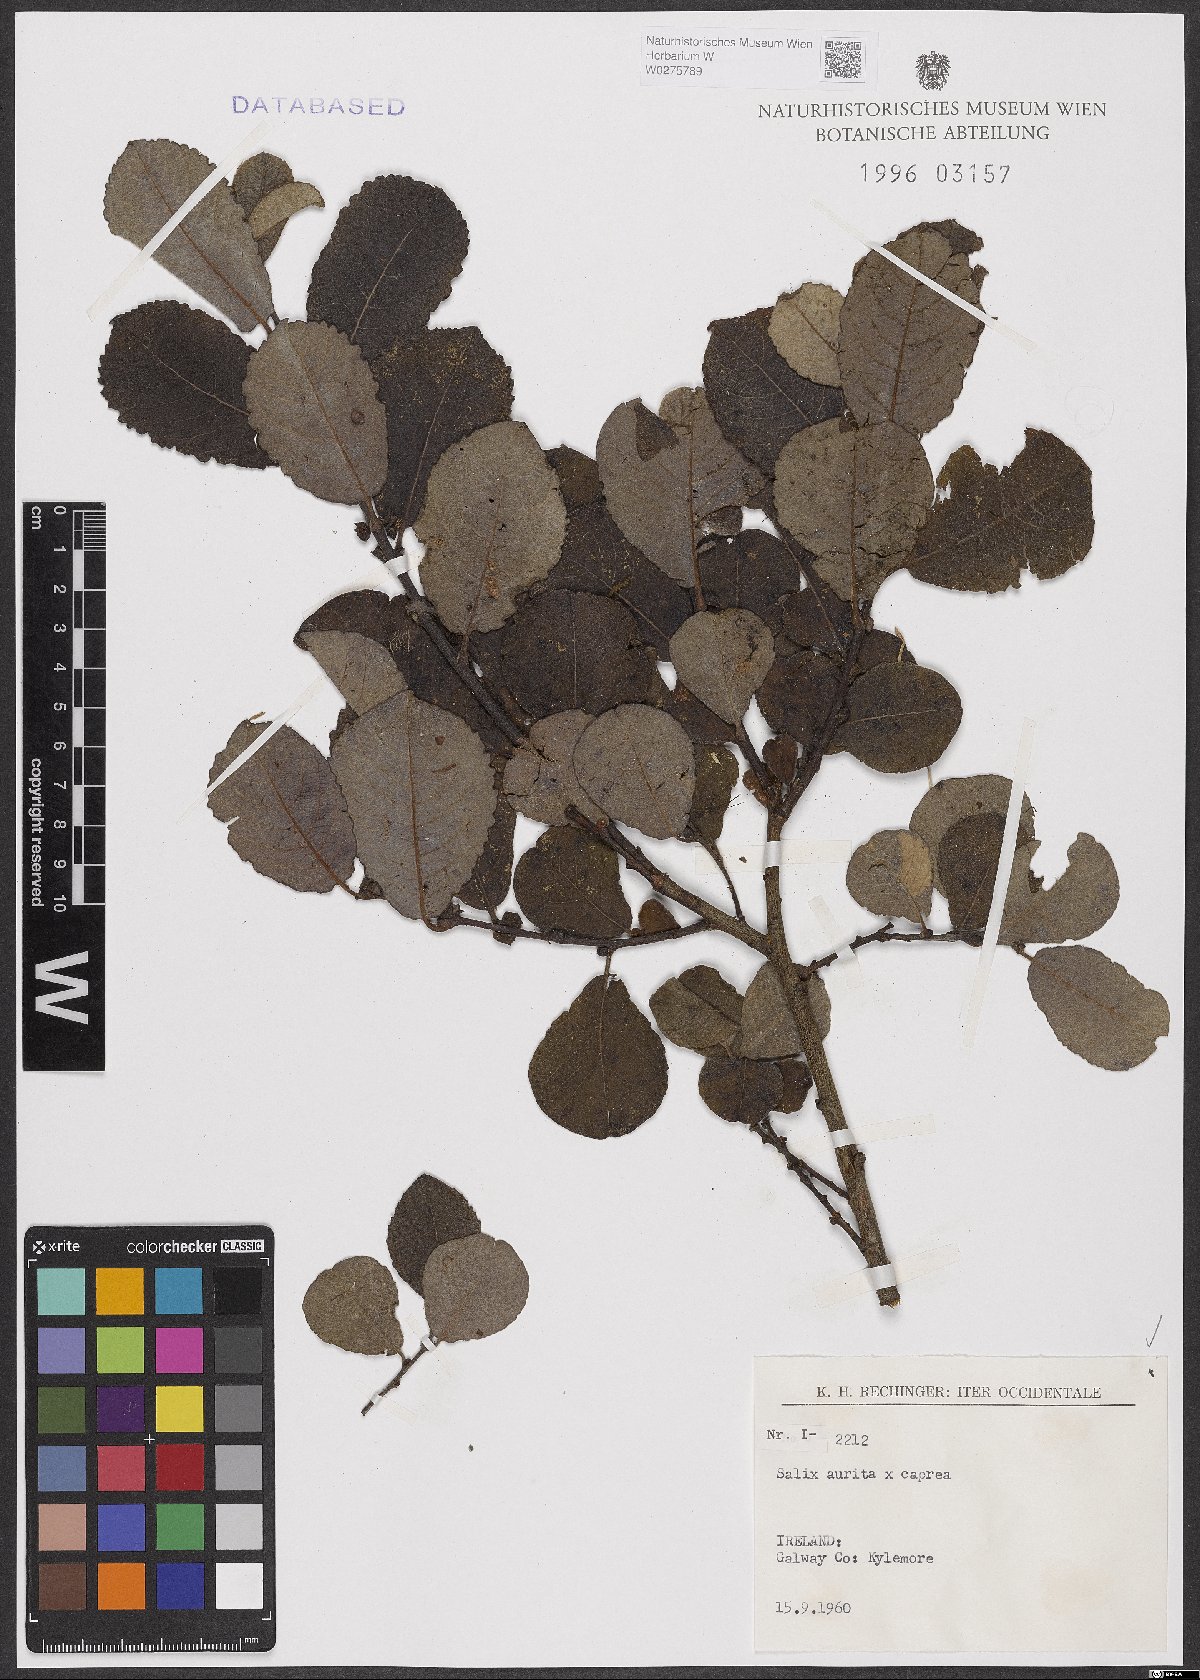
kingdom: Plantae
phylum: Tracheophyta
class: Magnoliopsida
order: Malpighiales
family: Salicaceae
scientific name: Salicaceae
